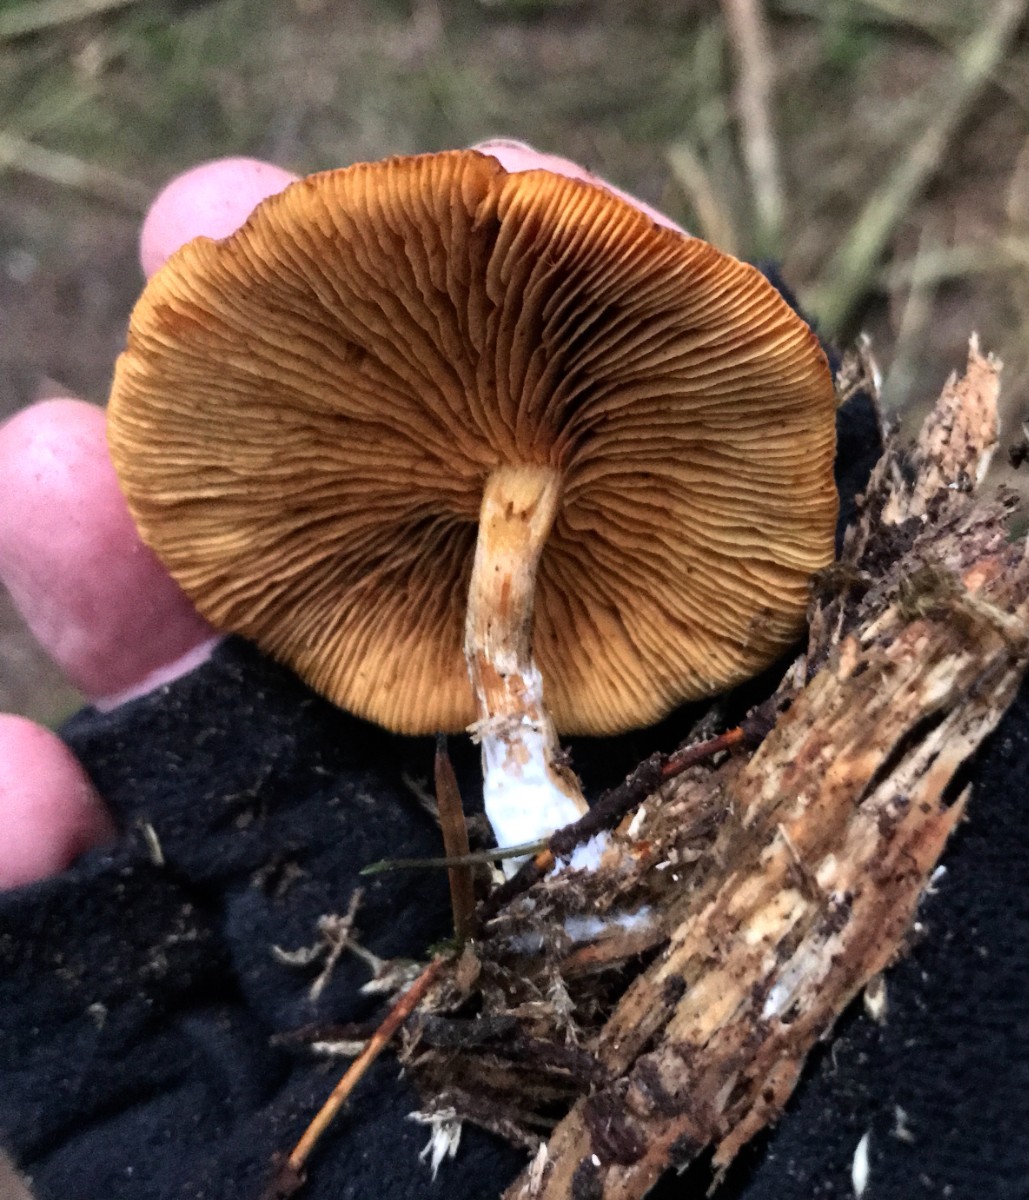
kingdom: Fungi
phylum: Basidiomycota
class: Agaricomycetes
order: Agaricales
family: Hymenogastraceae
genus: Gymnopilus
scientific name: Gymnopilus penetrans
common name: plettet flammehat
